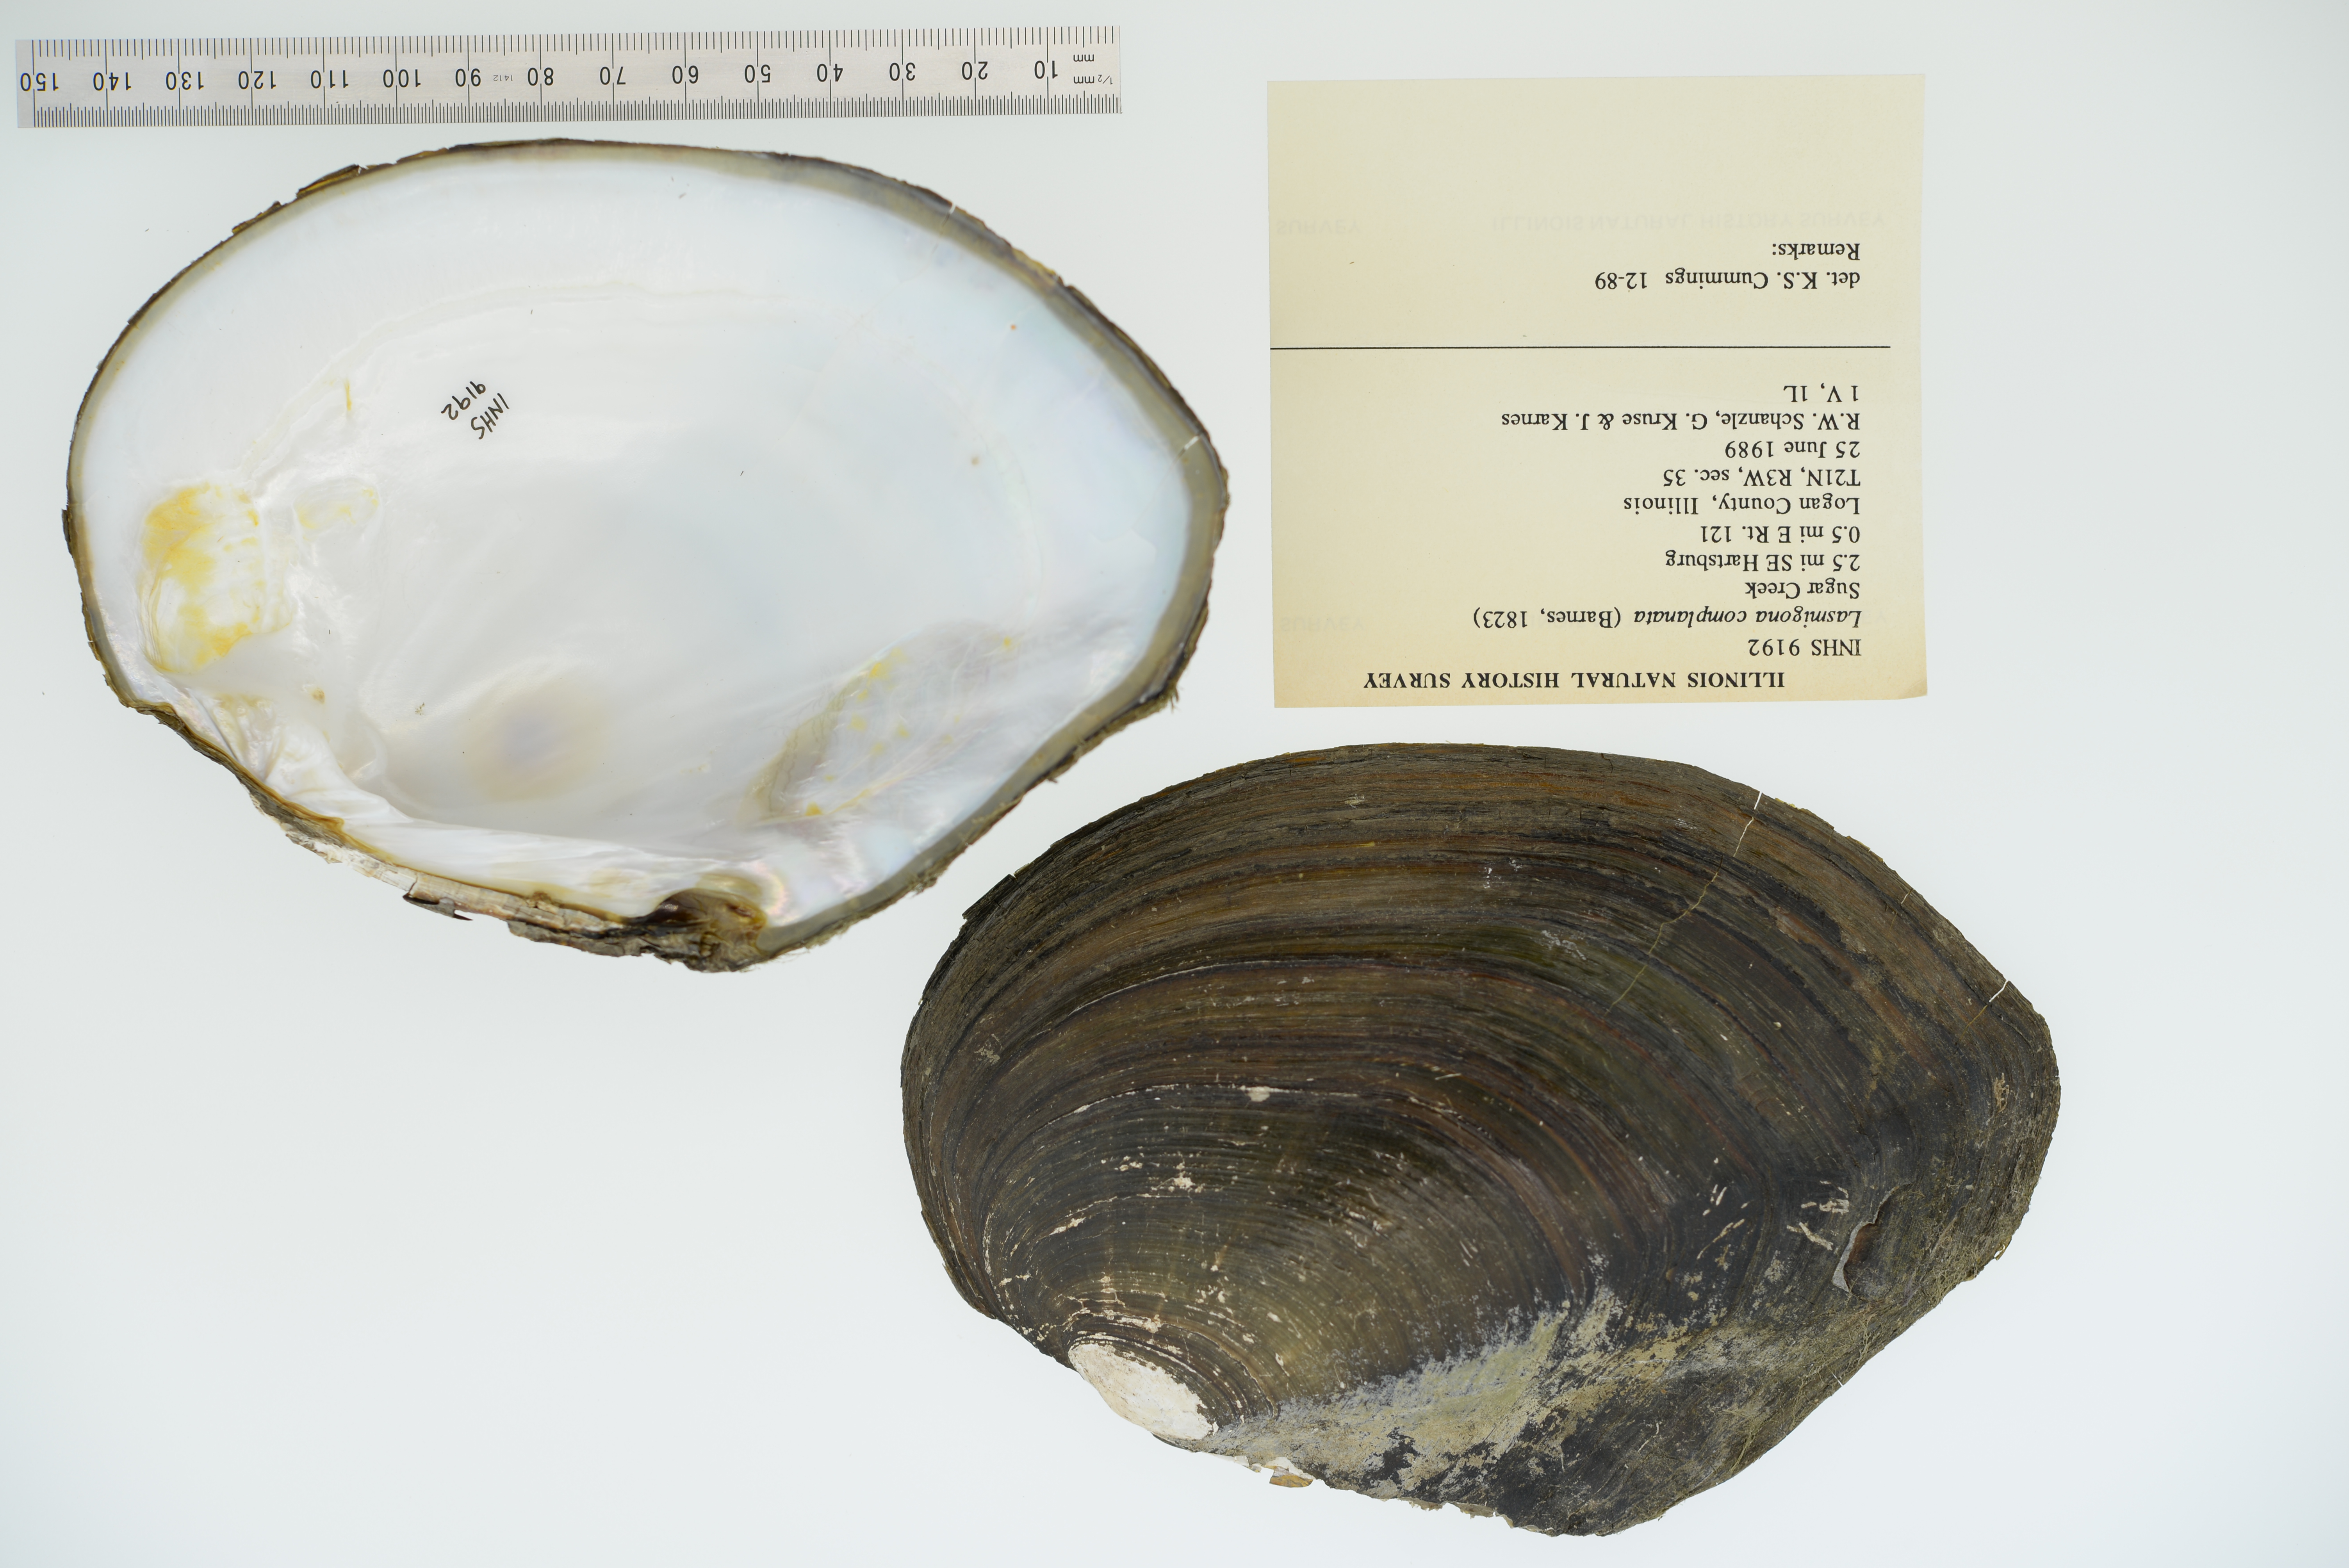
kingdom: Animalia
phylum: Mollusca
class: Bivalvia
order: Unionida
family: Unionidae
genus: Lasmigona
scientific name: Lasmigona complanata
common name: White heelsplitter
